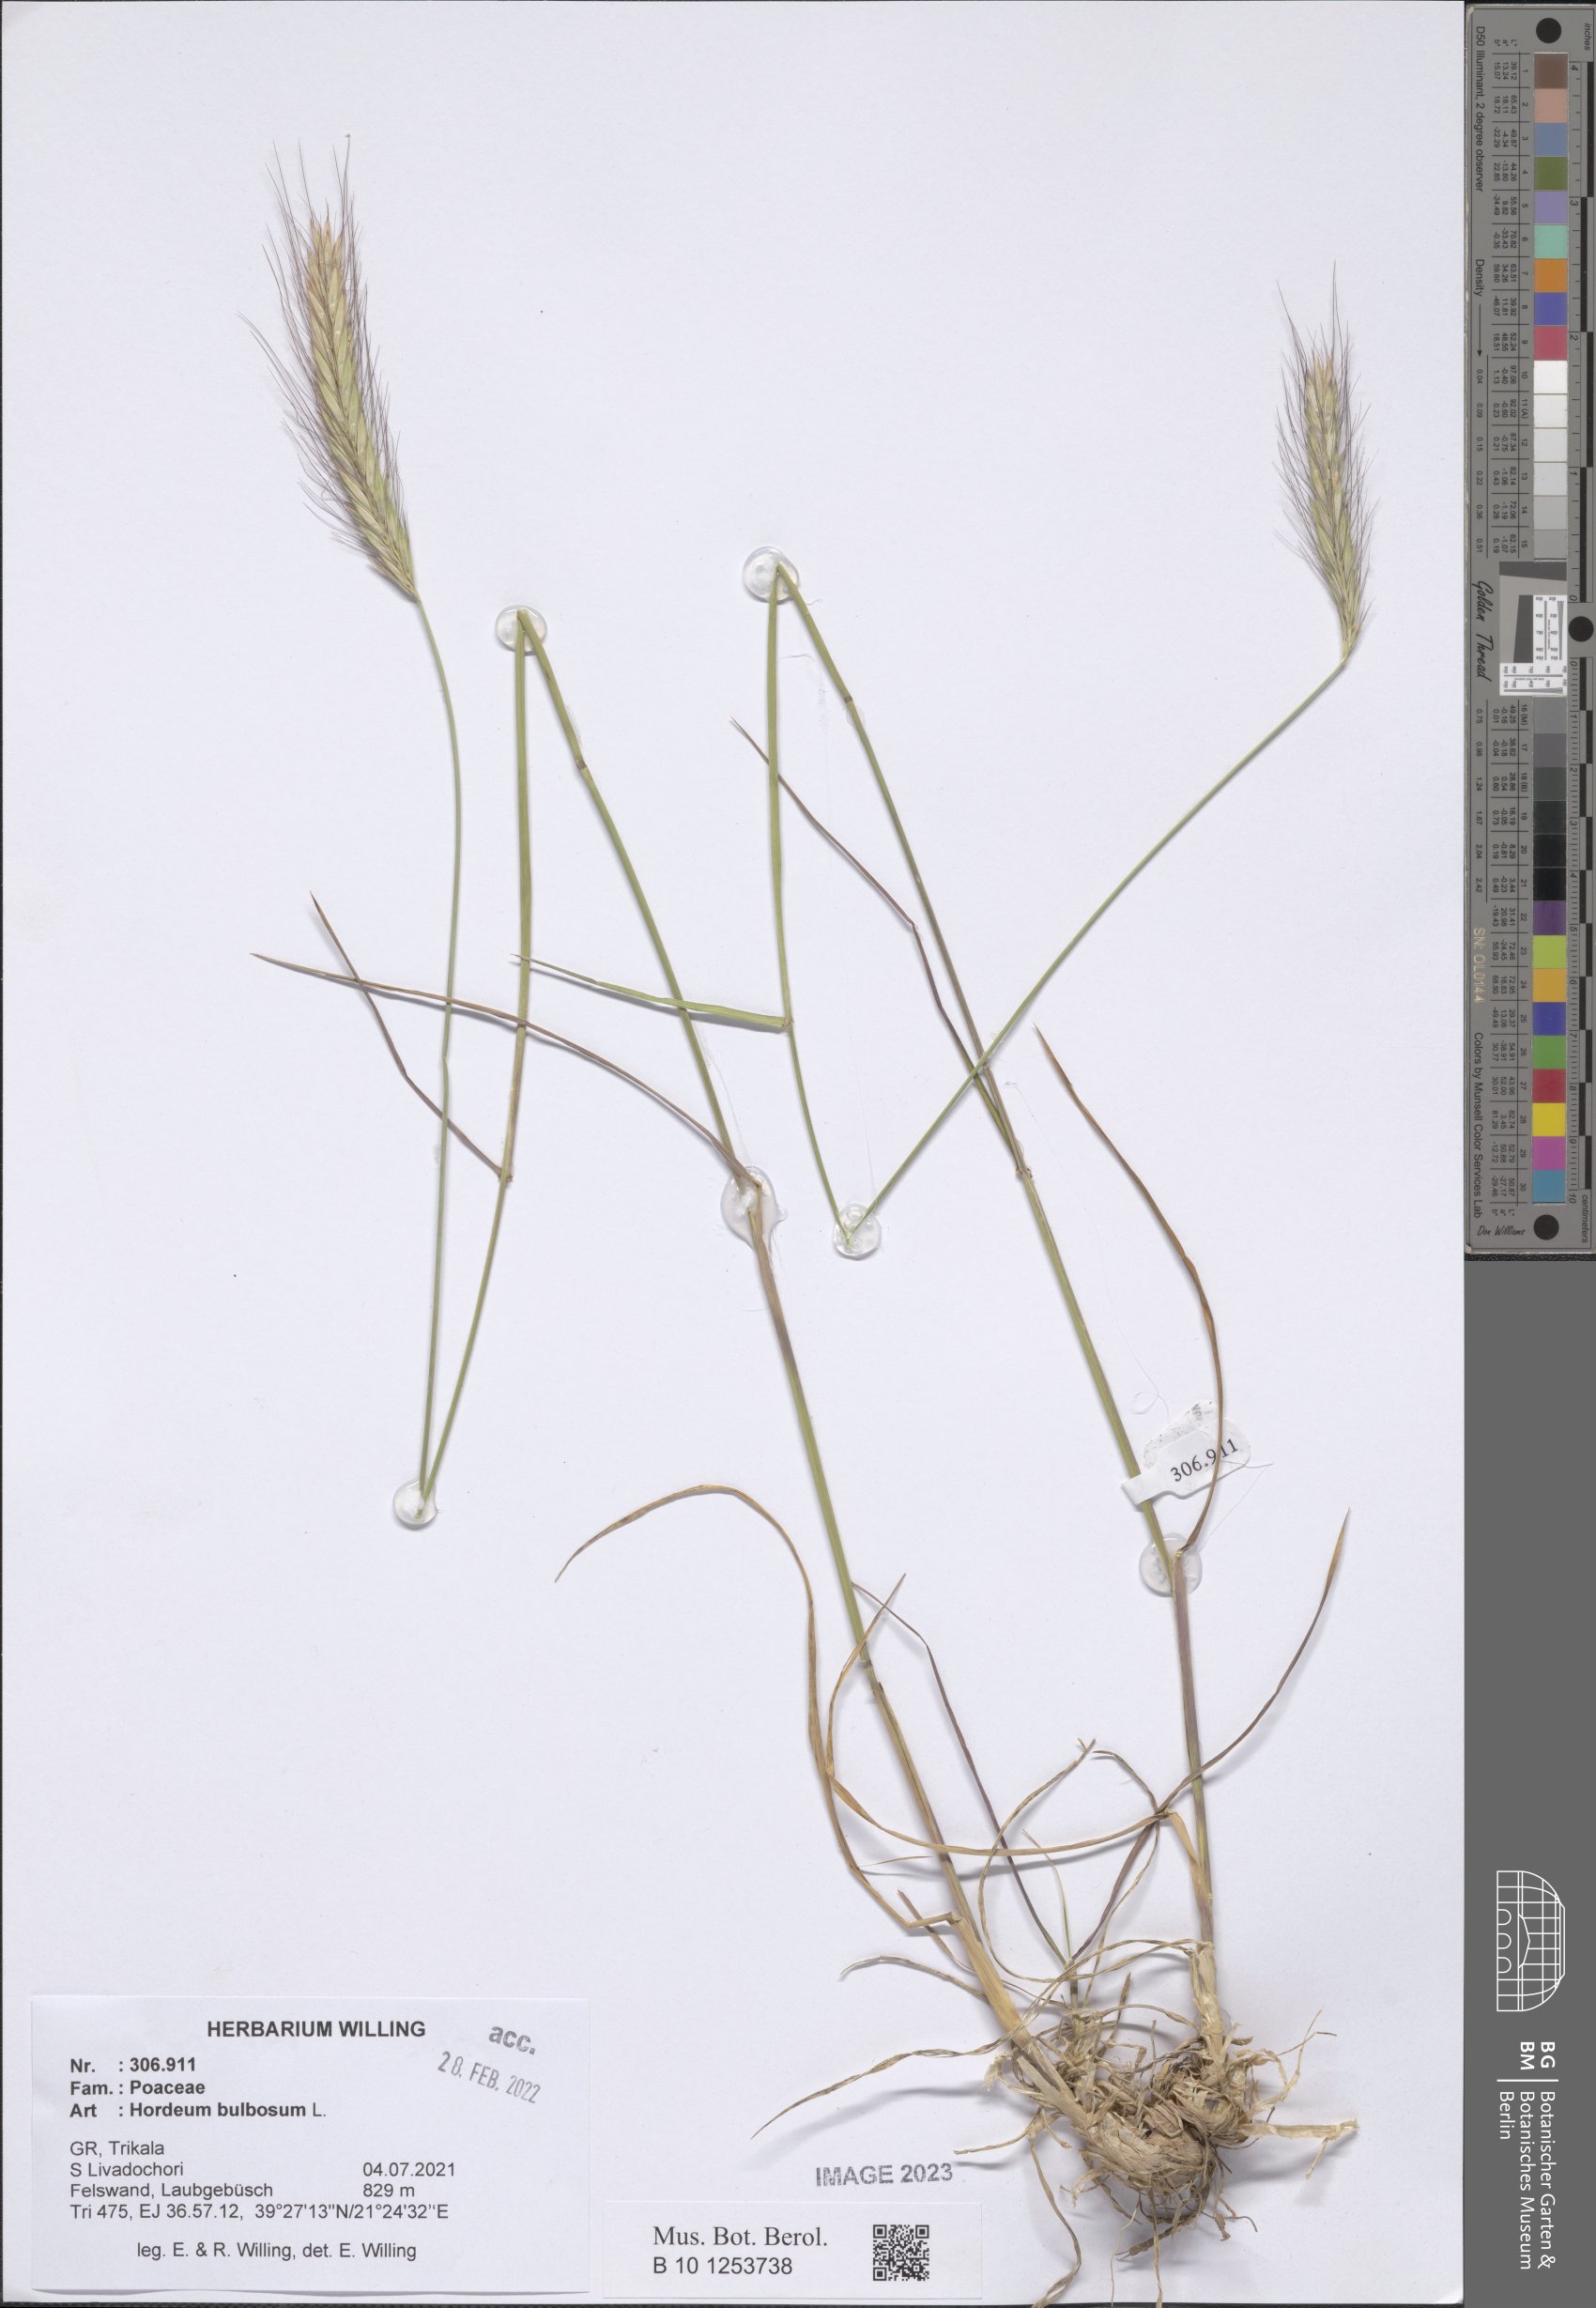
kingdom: Plantae
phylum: Tracheophyta
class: Liliopsida
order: Poales
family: Poaceae
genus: Hordeum
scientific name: Hordeum bulbosum
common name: Bulbous barley
